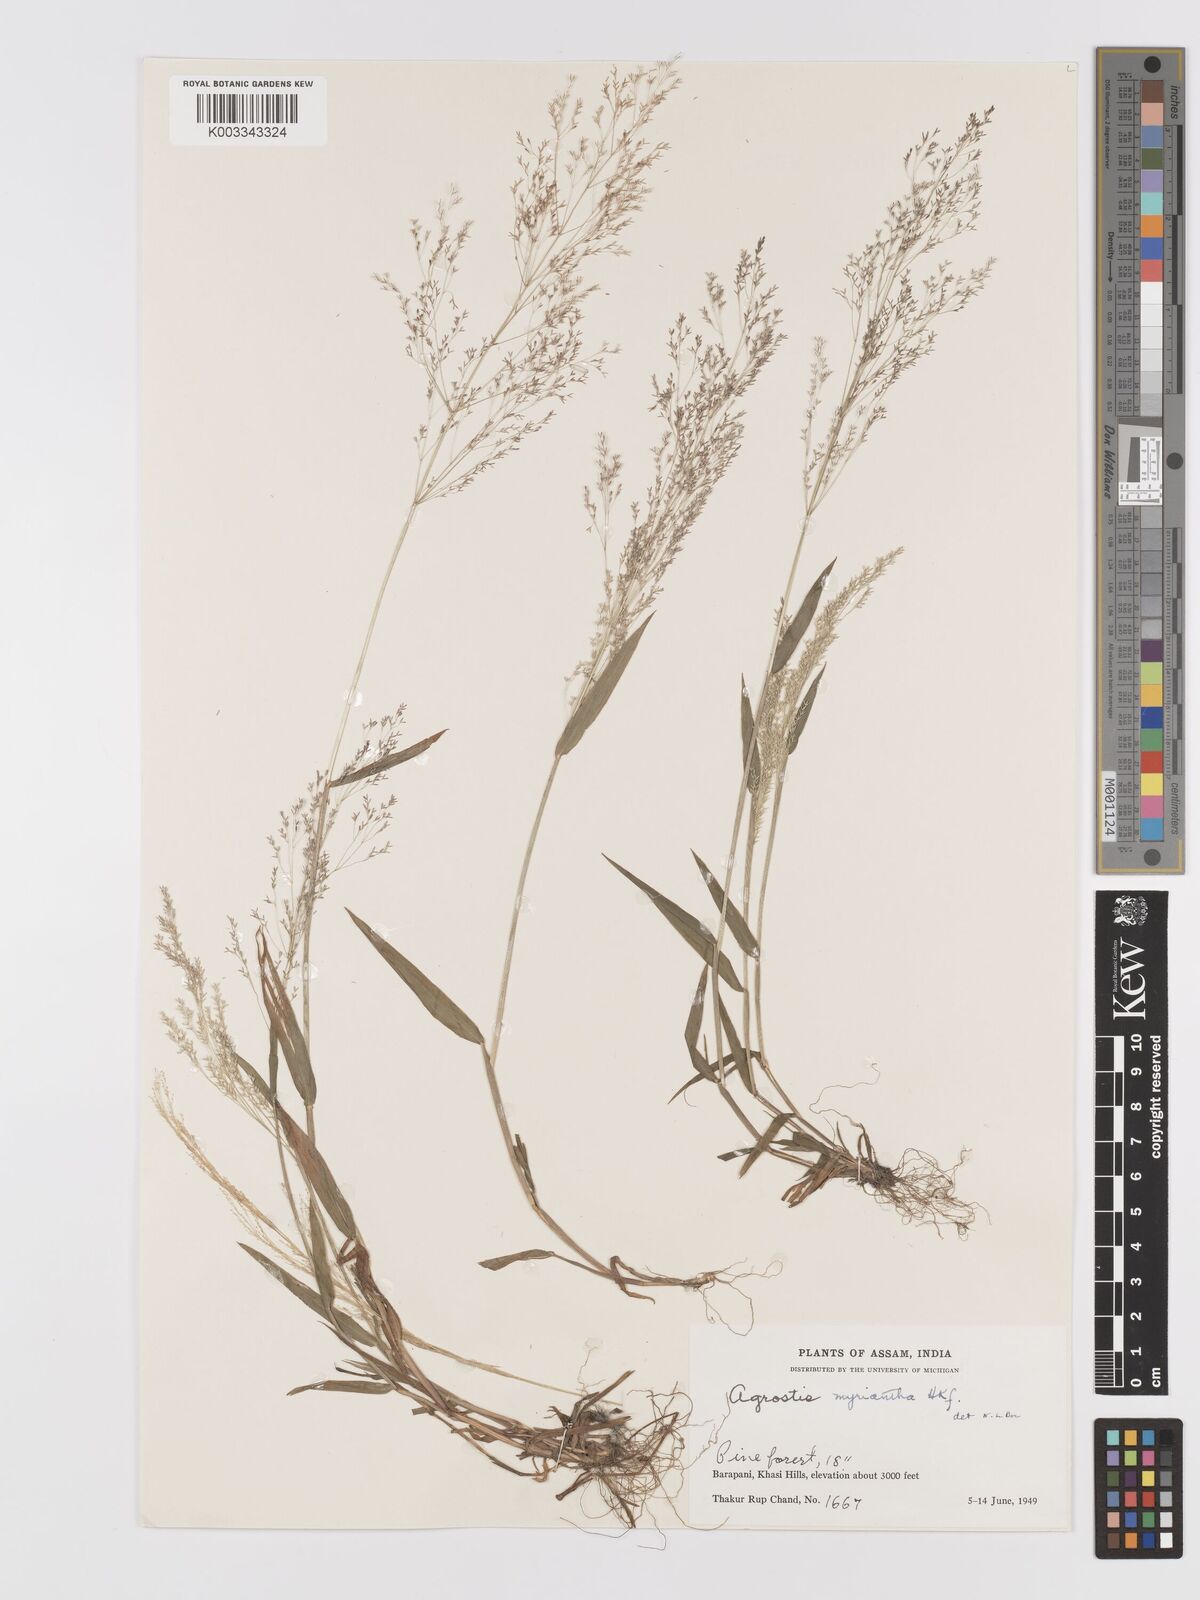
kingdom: Plantae
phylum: Tracheophyta
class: Liliopsida
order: Poales
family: Poaceae
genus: Agrostis
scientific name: Agrostis micrantha
